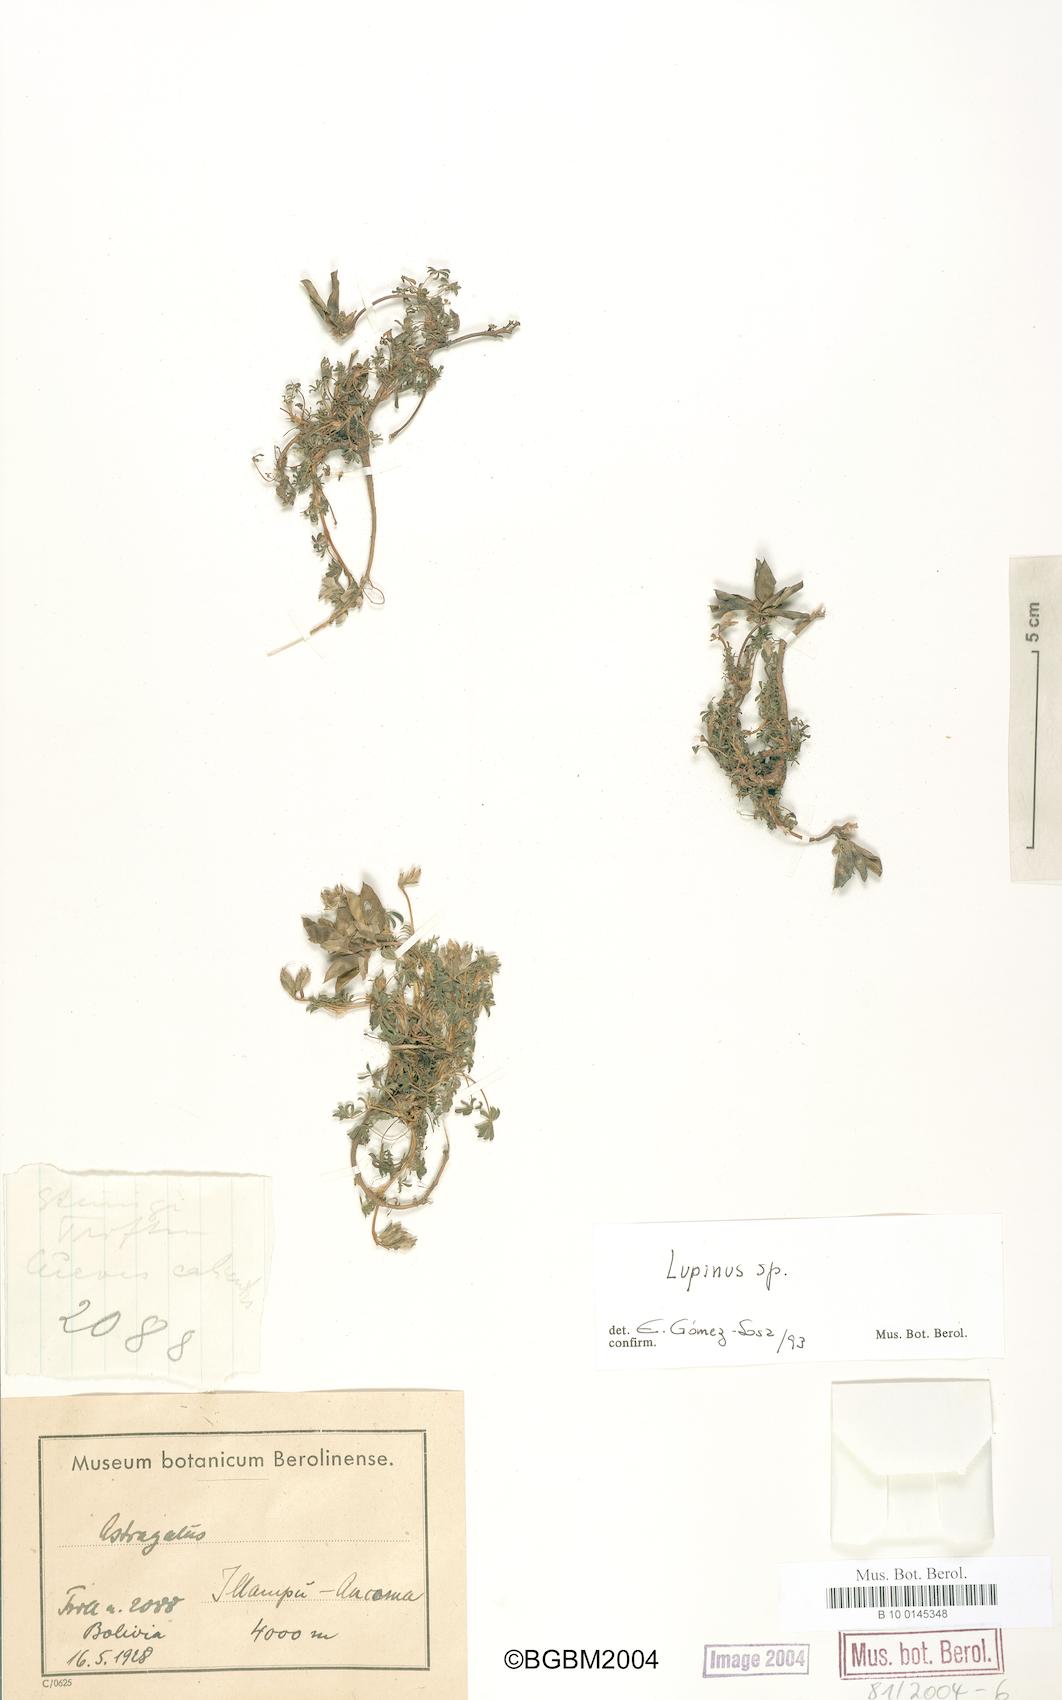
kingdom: Plantae
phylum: Tracheophyta
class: Magnoliopsida
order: Fabales
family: Fabaceae
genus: Lupinus
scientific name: Lupinus
